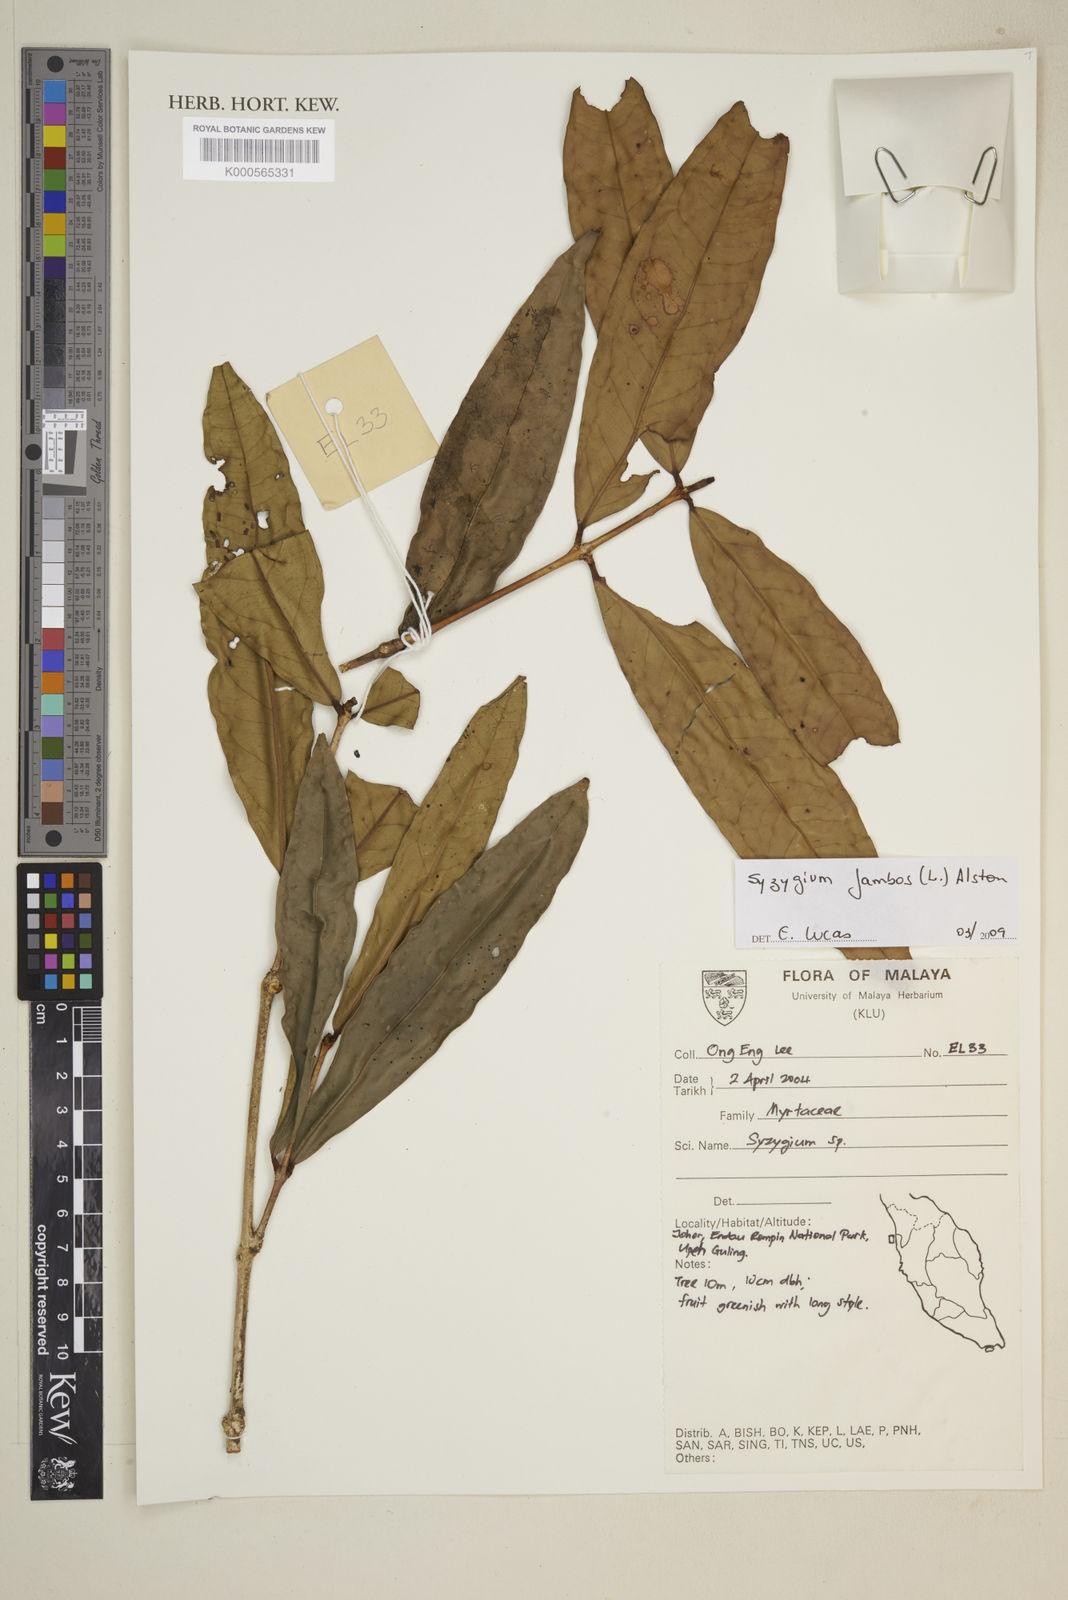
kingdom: Plantae
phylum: Tracheophyta
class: Magnoliopsida
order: Myrtales
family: Myrtaceae
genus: Syzygium
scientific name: Syzygium jambos
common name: Malabar plum
